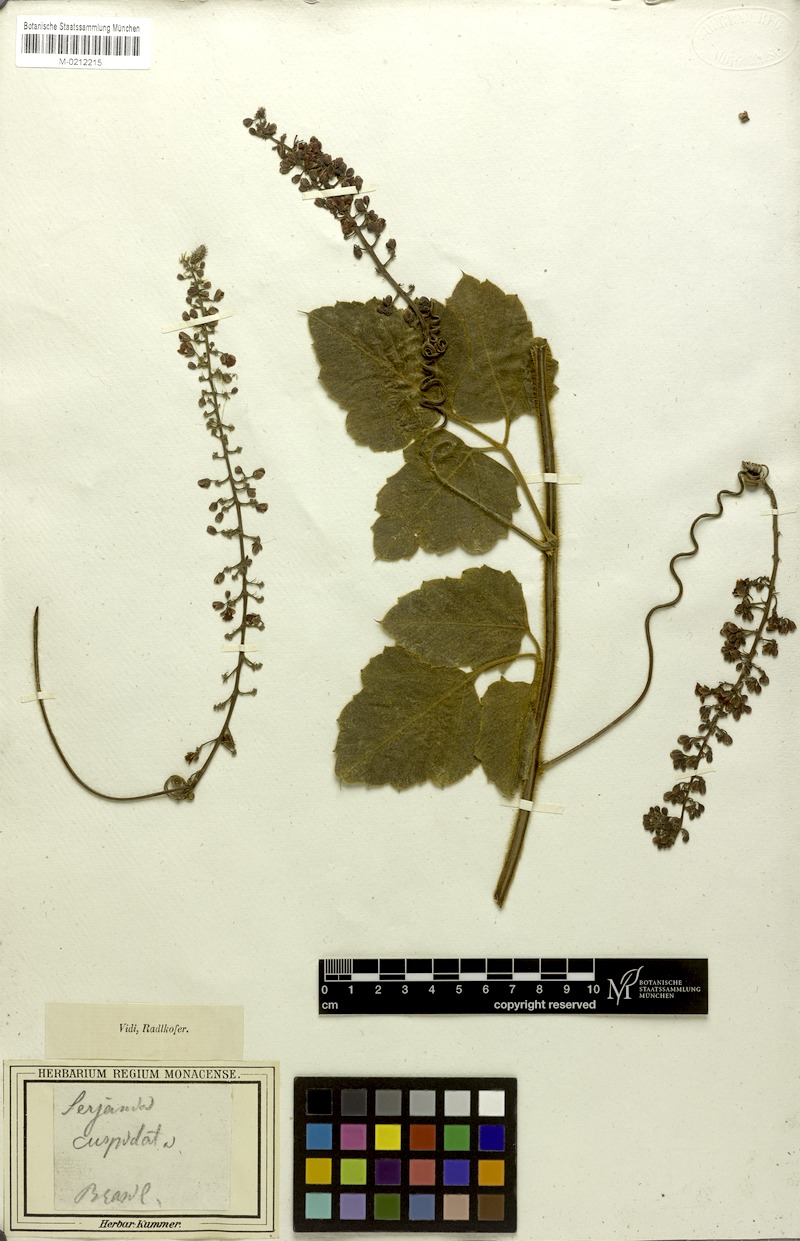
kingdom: Plantae
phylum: Tracheophyta
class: Magnoliopsida
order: Sapindales
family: Sapindaceae
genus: Serjania
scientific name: Serjania ferruginea
